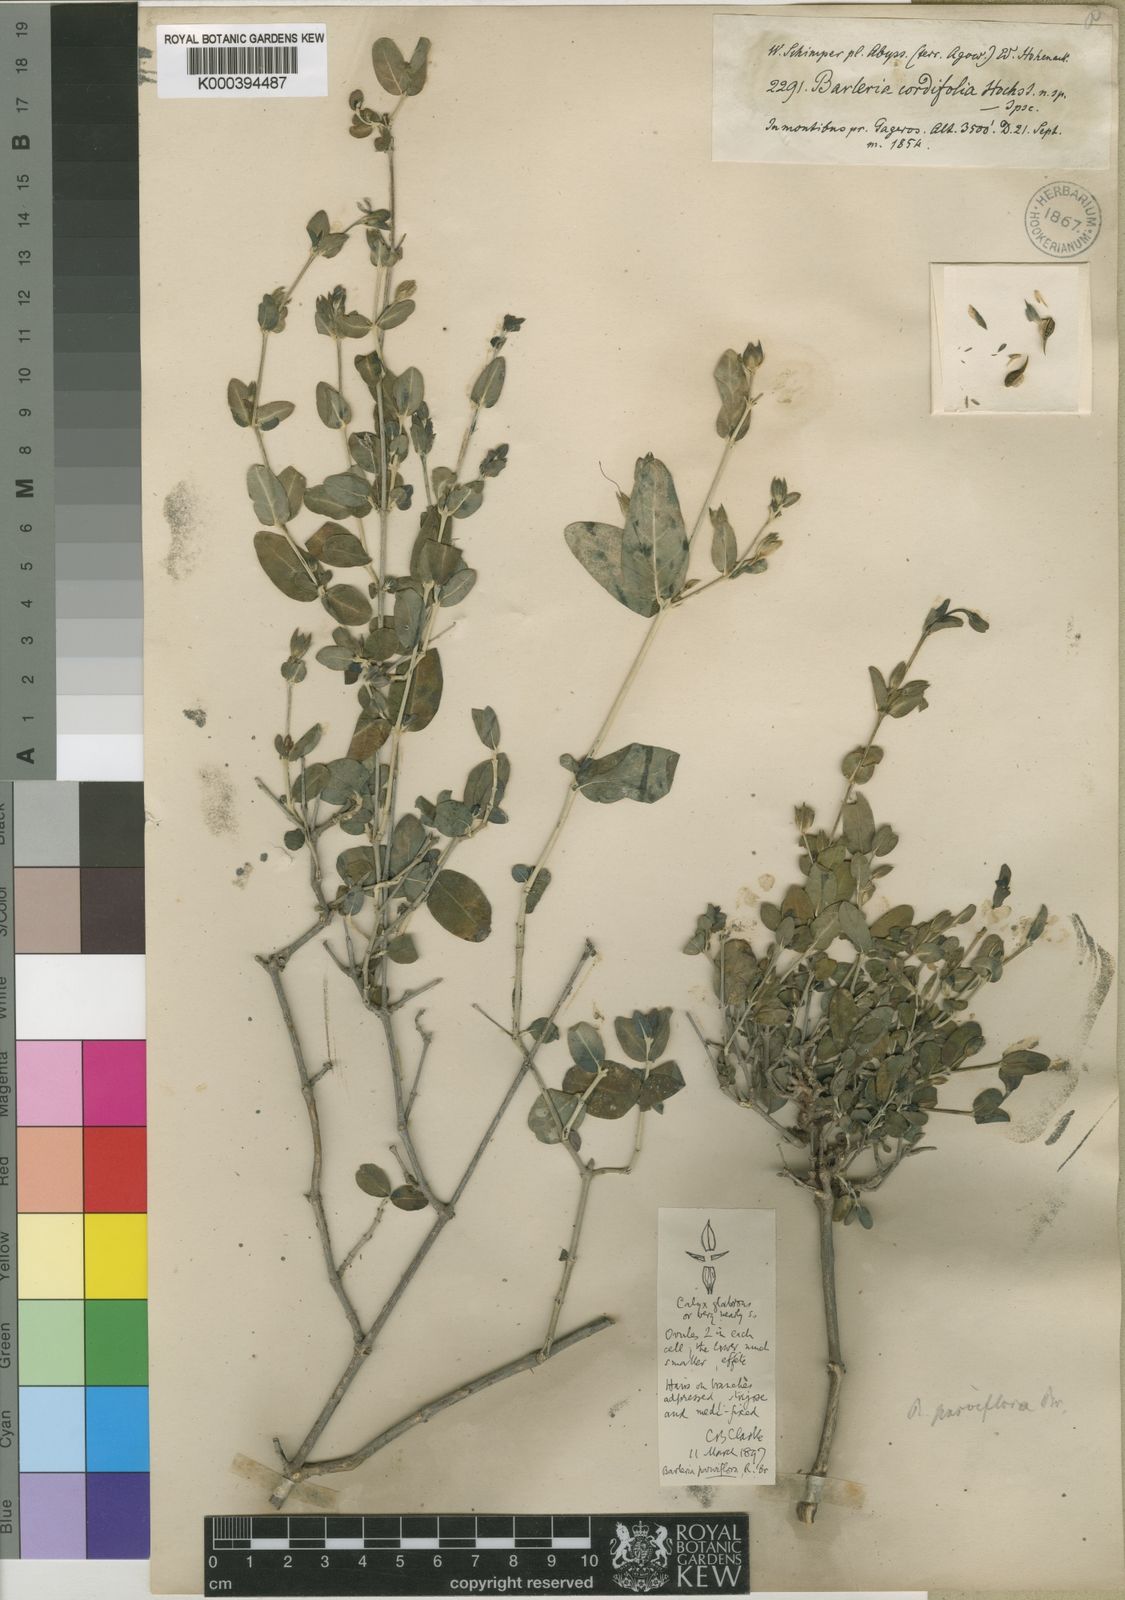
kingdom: Plantae
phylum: Tracheophyta
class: Magnoliopsida
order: Lamiales
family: Acanthaceae
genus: Barleria
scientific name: Barleria parviflora
